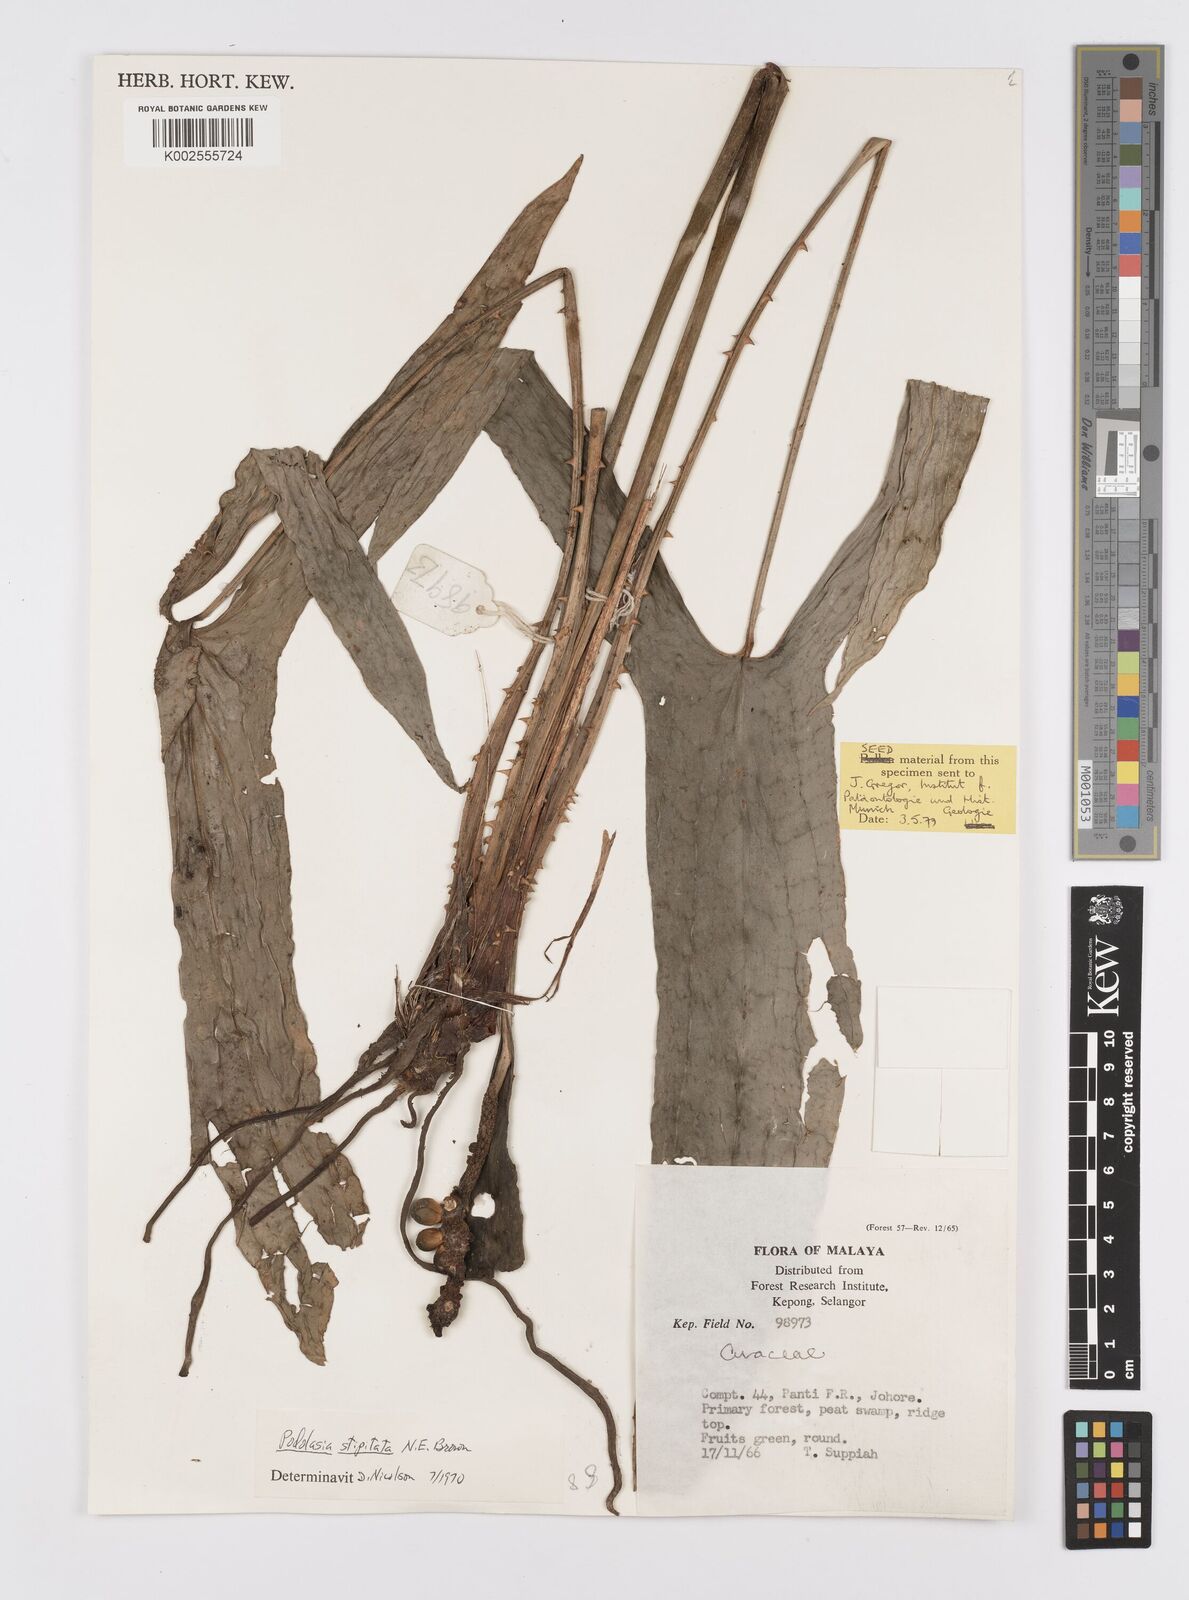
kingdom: Plantae
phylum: Tracheophyta
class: Liliopsida
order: Alismatales
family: Araceae
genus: Podolasia
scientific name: Podolasia stipitata
